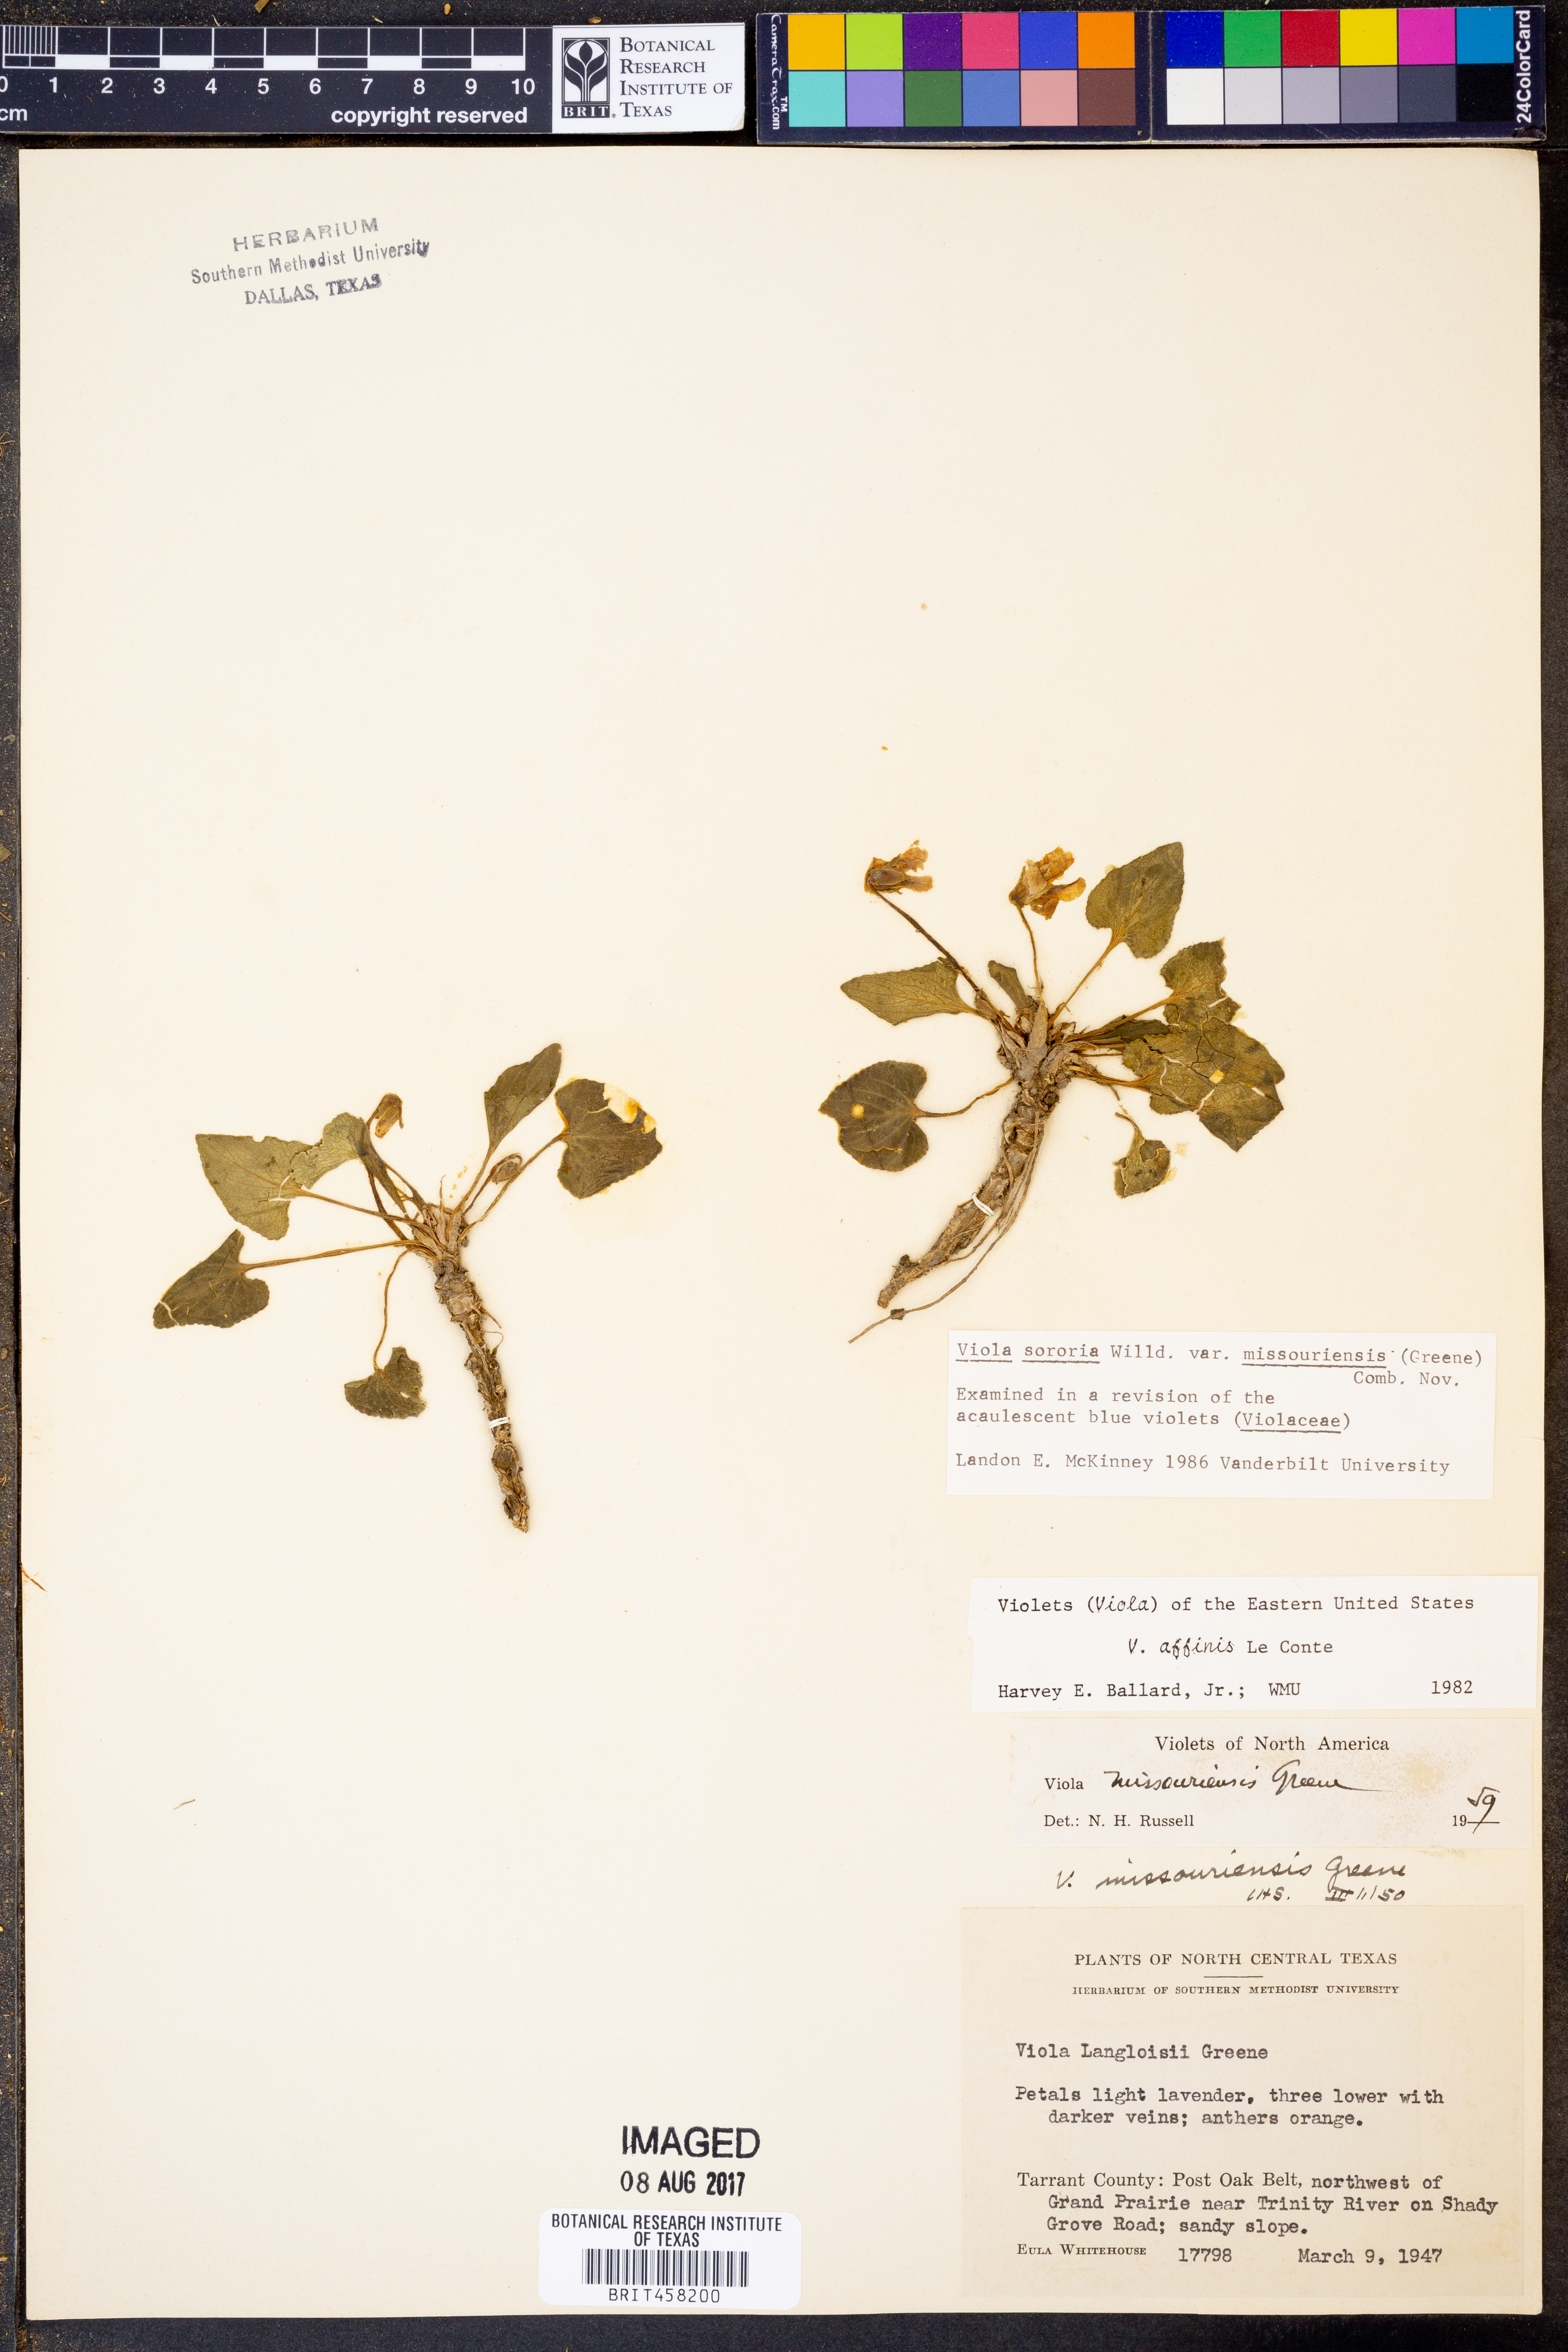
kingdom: Plantae
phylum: Tracheophyta
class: Magnoliopsida
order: Malpighiales
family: Violaceae
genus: Viola
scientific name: Viola missouriensis
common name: Missouri violet
